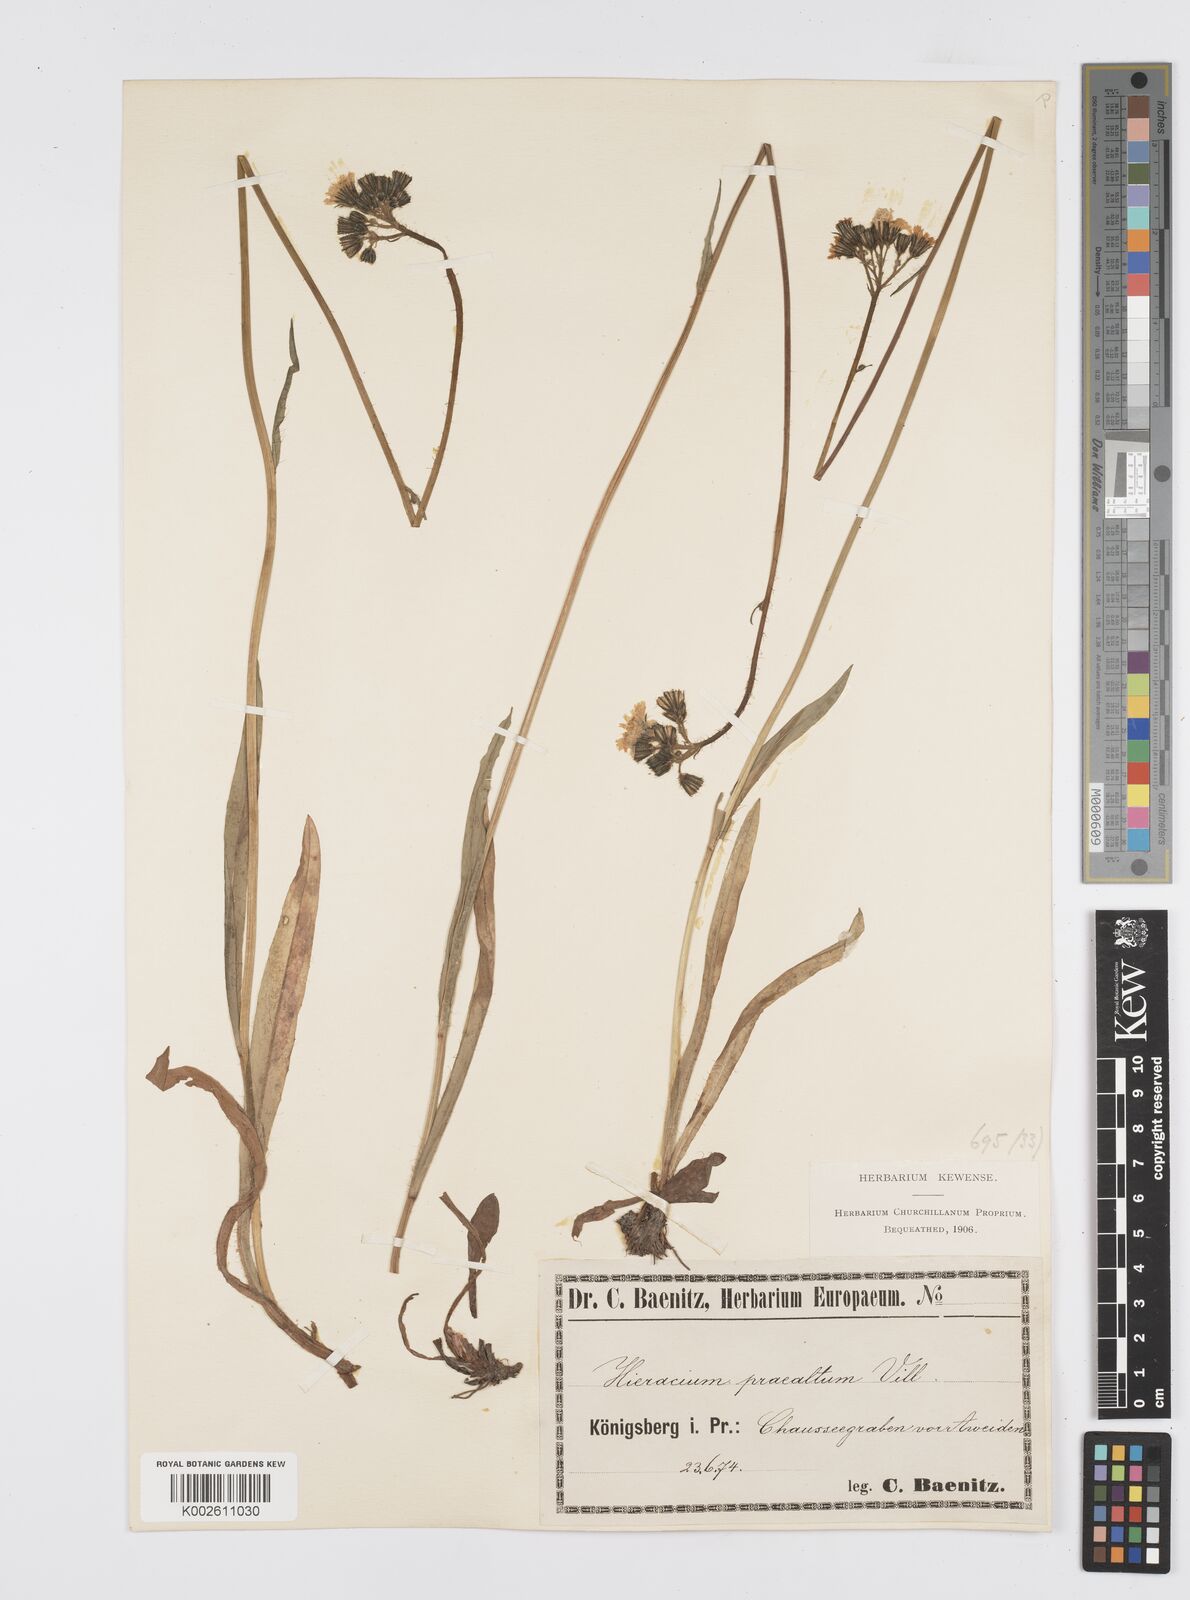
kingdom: Plantae
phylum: Tracheophyta
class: Magnoliopsida
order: Asterales
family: Asteraceae
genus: Pilosella
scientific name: Pilosella piloselloides
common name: Glaucous king-devil
